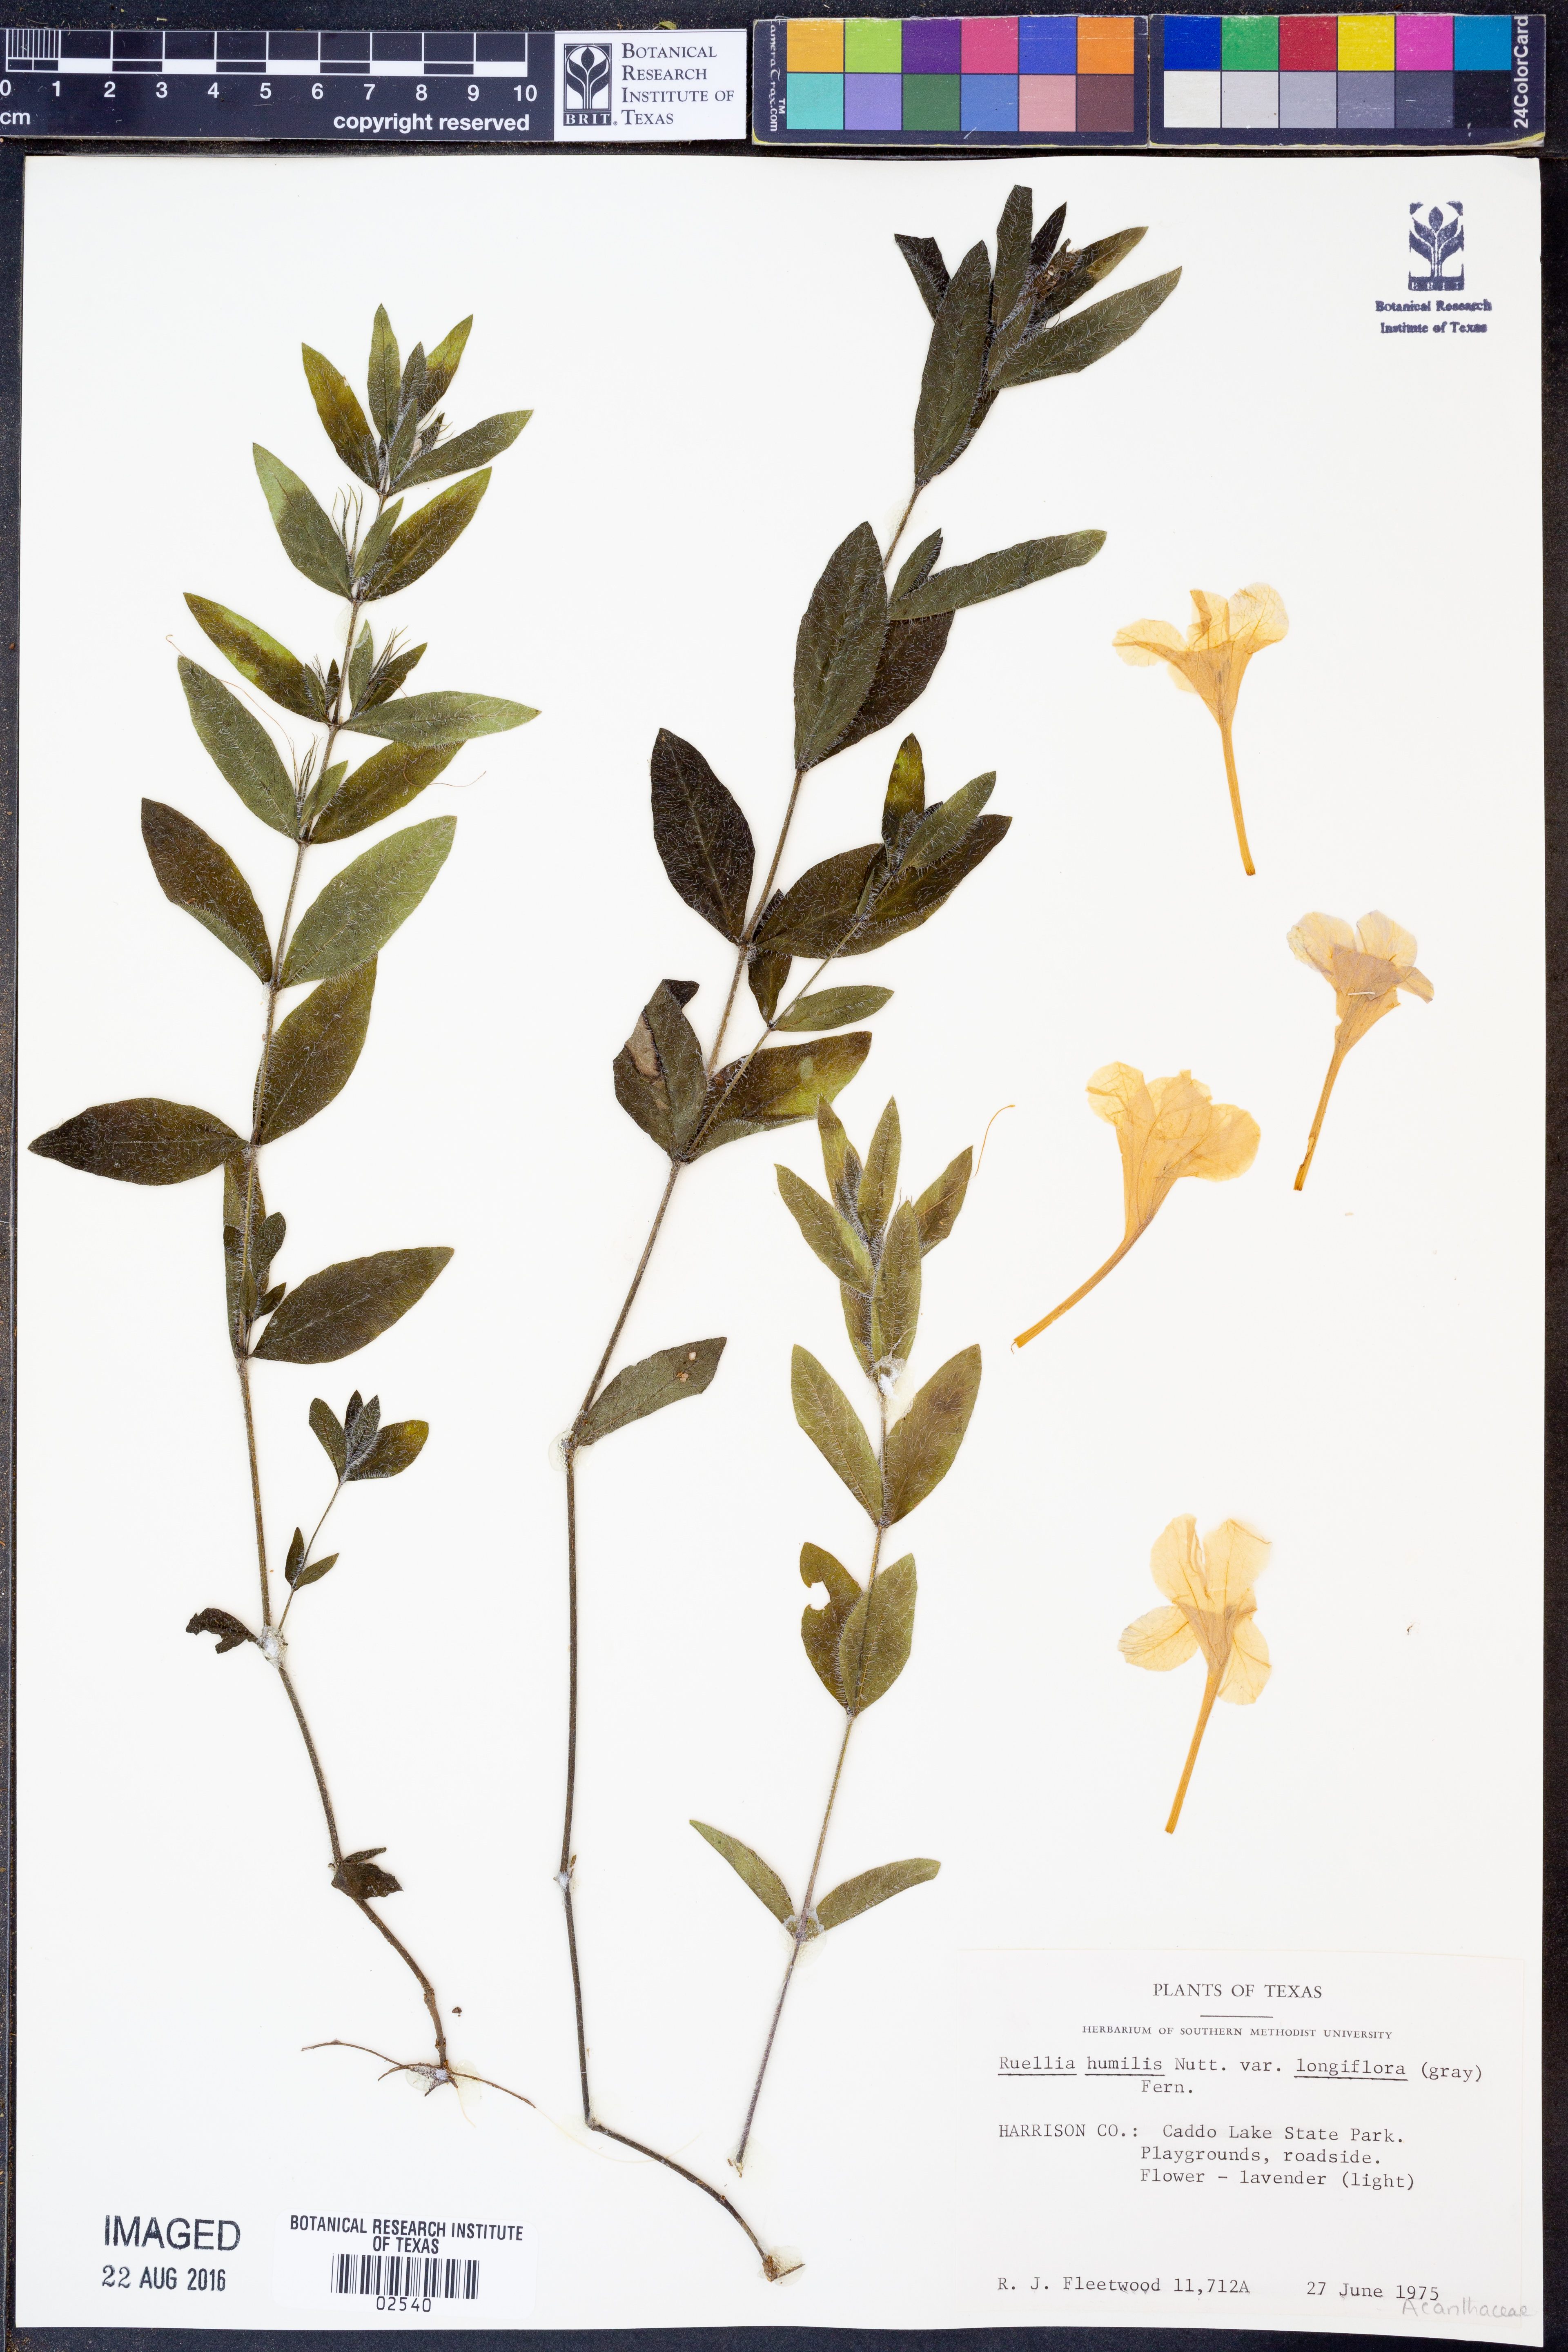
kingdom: Plantae
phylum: Tracheophyta
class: Magnoliopsida
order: Lamiales
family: Acanthaceae
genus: Ruellia
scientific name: Ruellia humilis
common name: Fringe-leaf ruellia
